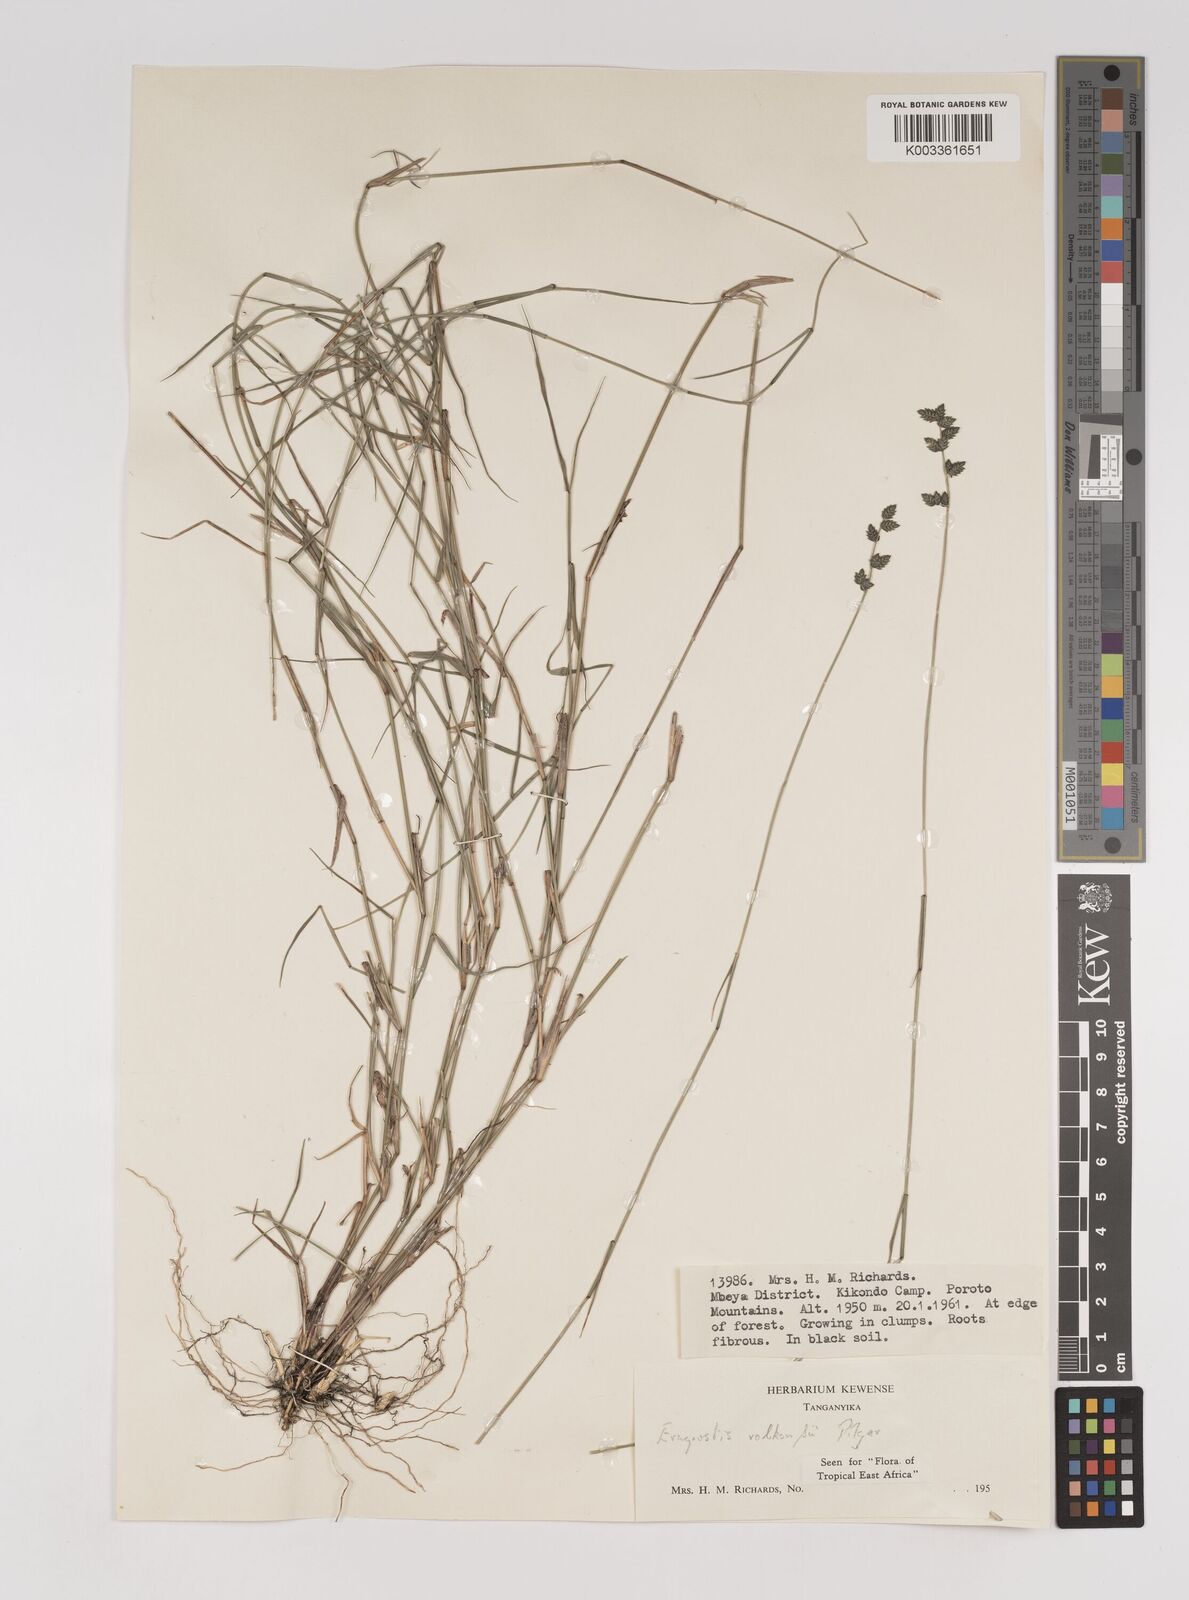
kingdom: Plantae
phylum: Tracheophyta
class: Liliopsida
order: Poales
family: Poaceae
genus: Eragrostis
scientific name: Eragrostis volkensii
